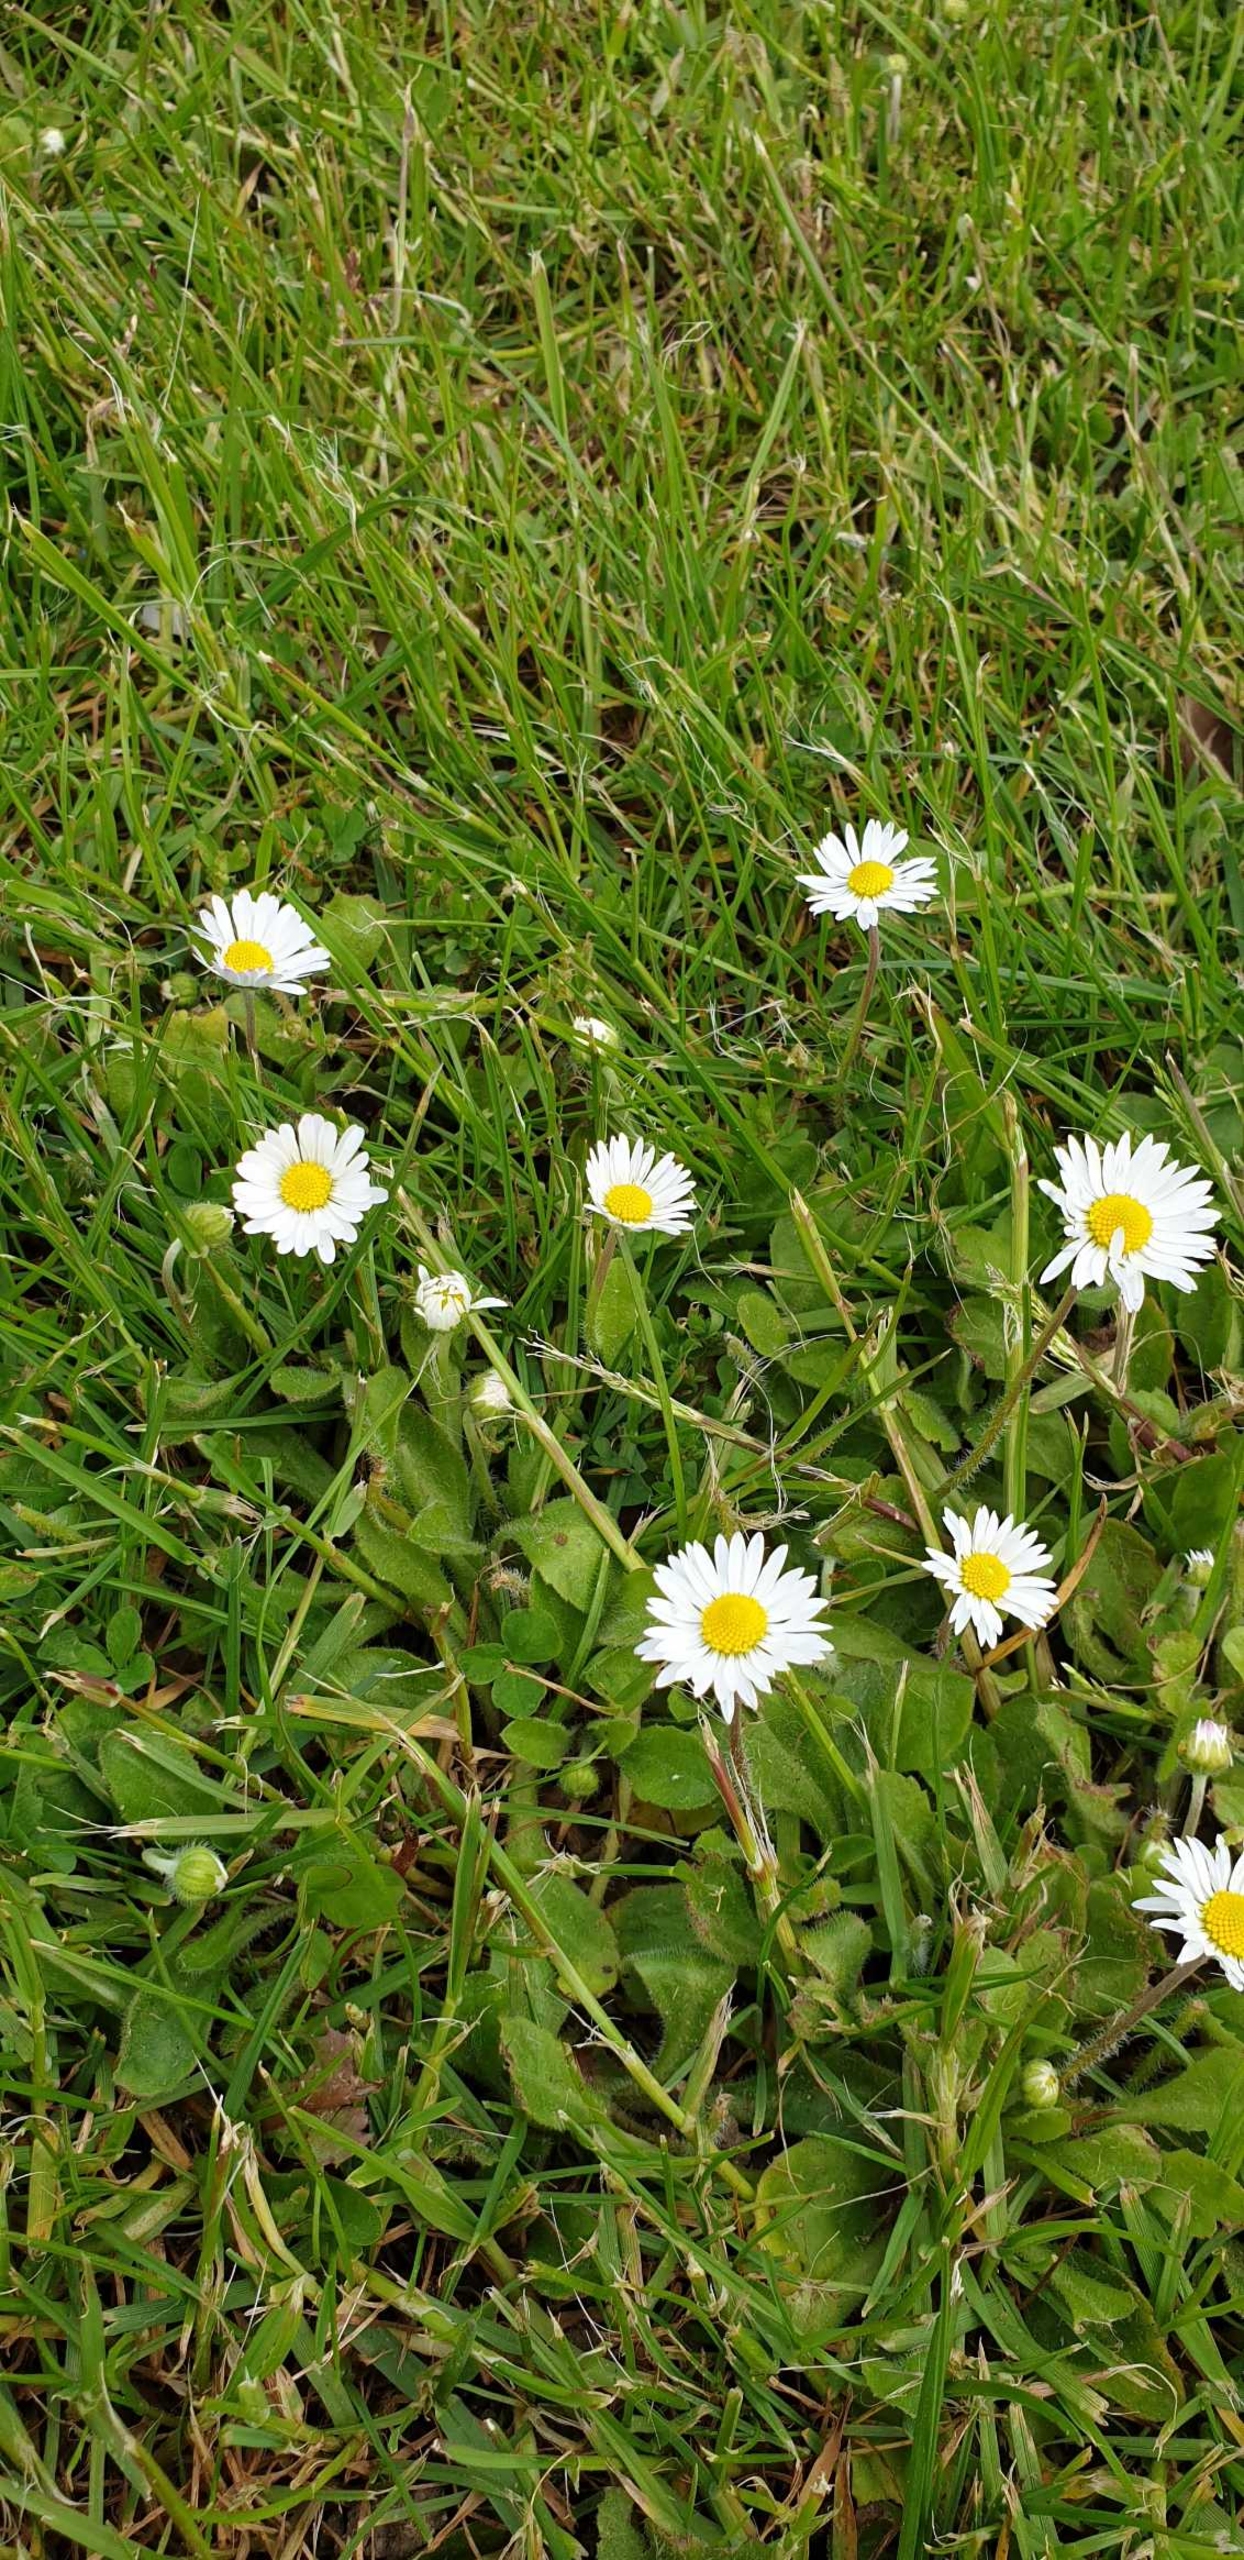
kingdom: Plantae
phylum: Tracheophyta
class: Magnoliopsida
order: Asterales
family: Asteraceae
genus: Bellis
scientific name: Bellis perennis
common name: Tusindfryd
